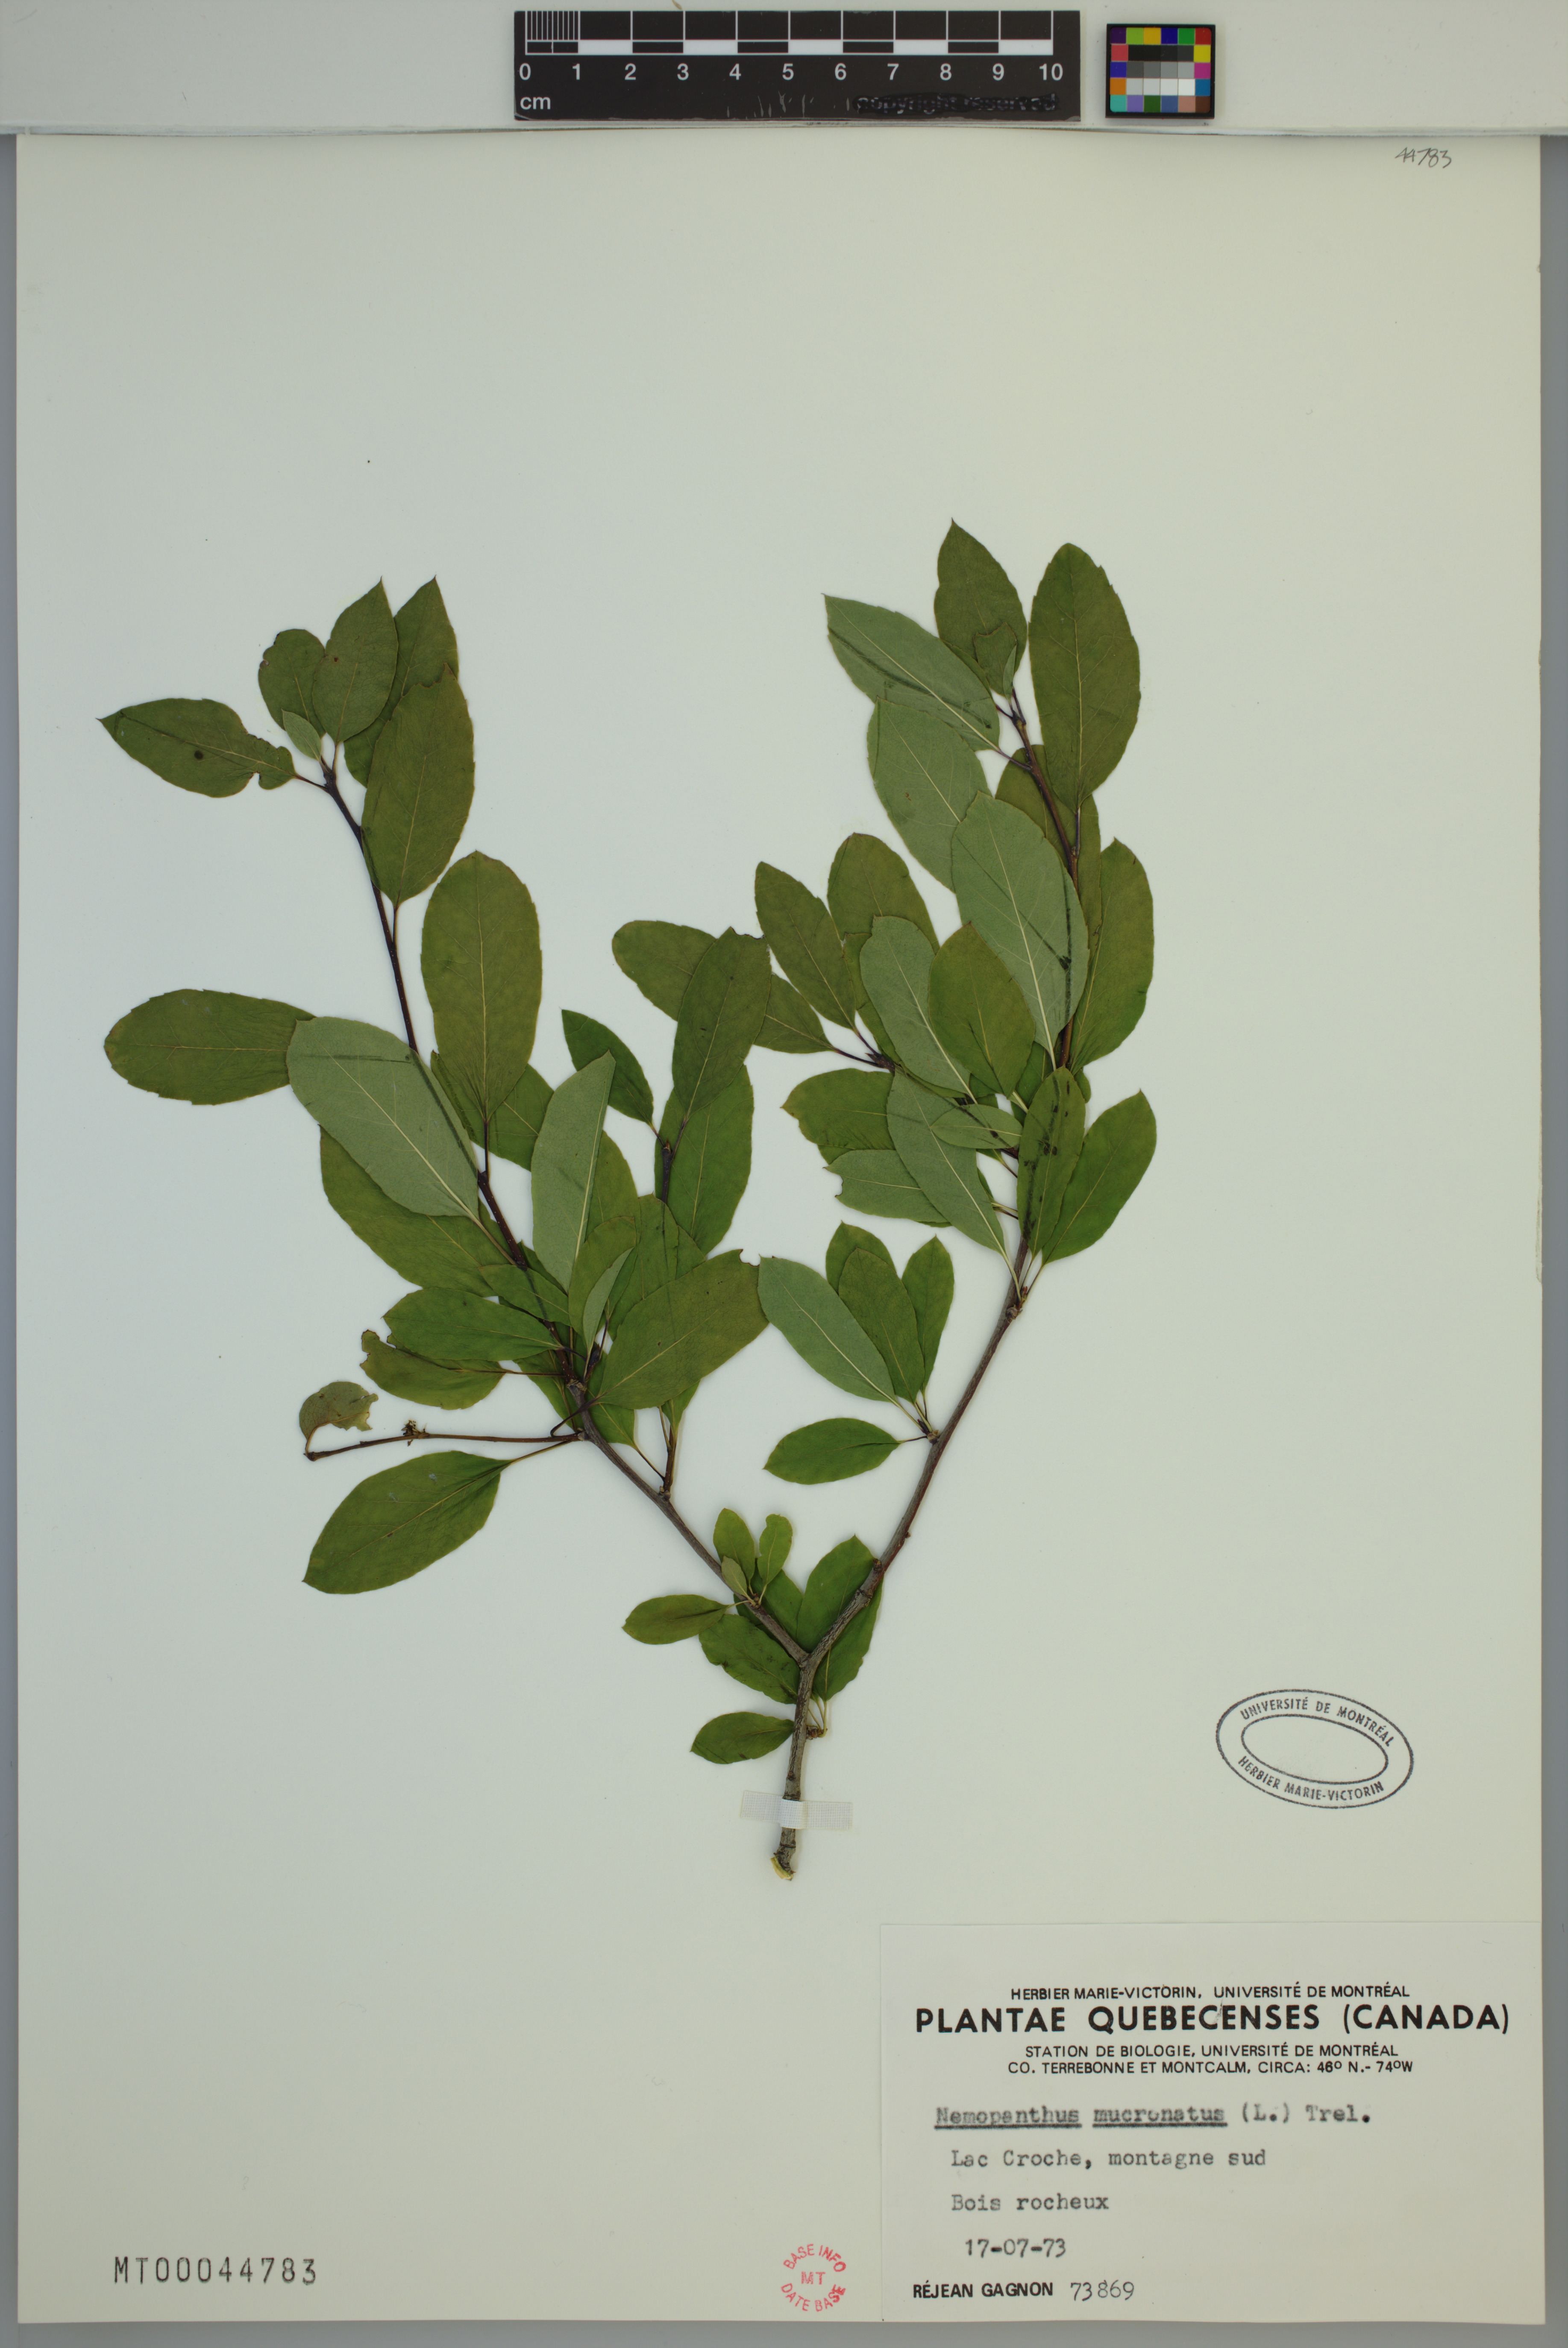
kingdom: Plantae
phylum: Tracheophyta
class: Magnoliopsida
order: Aquifoliales
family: Aquifoliaceae
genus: Ilex
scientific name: Ilex mucronata
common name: Catberry
